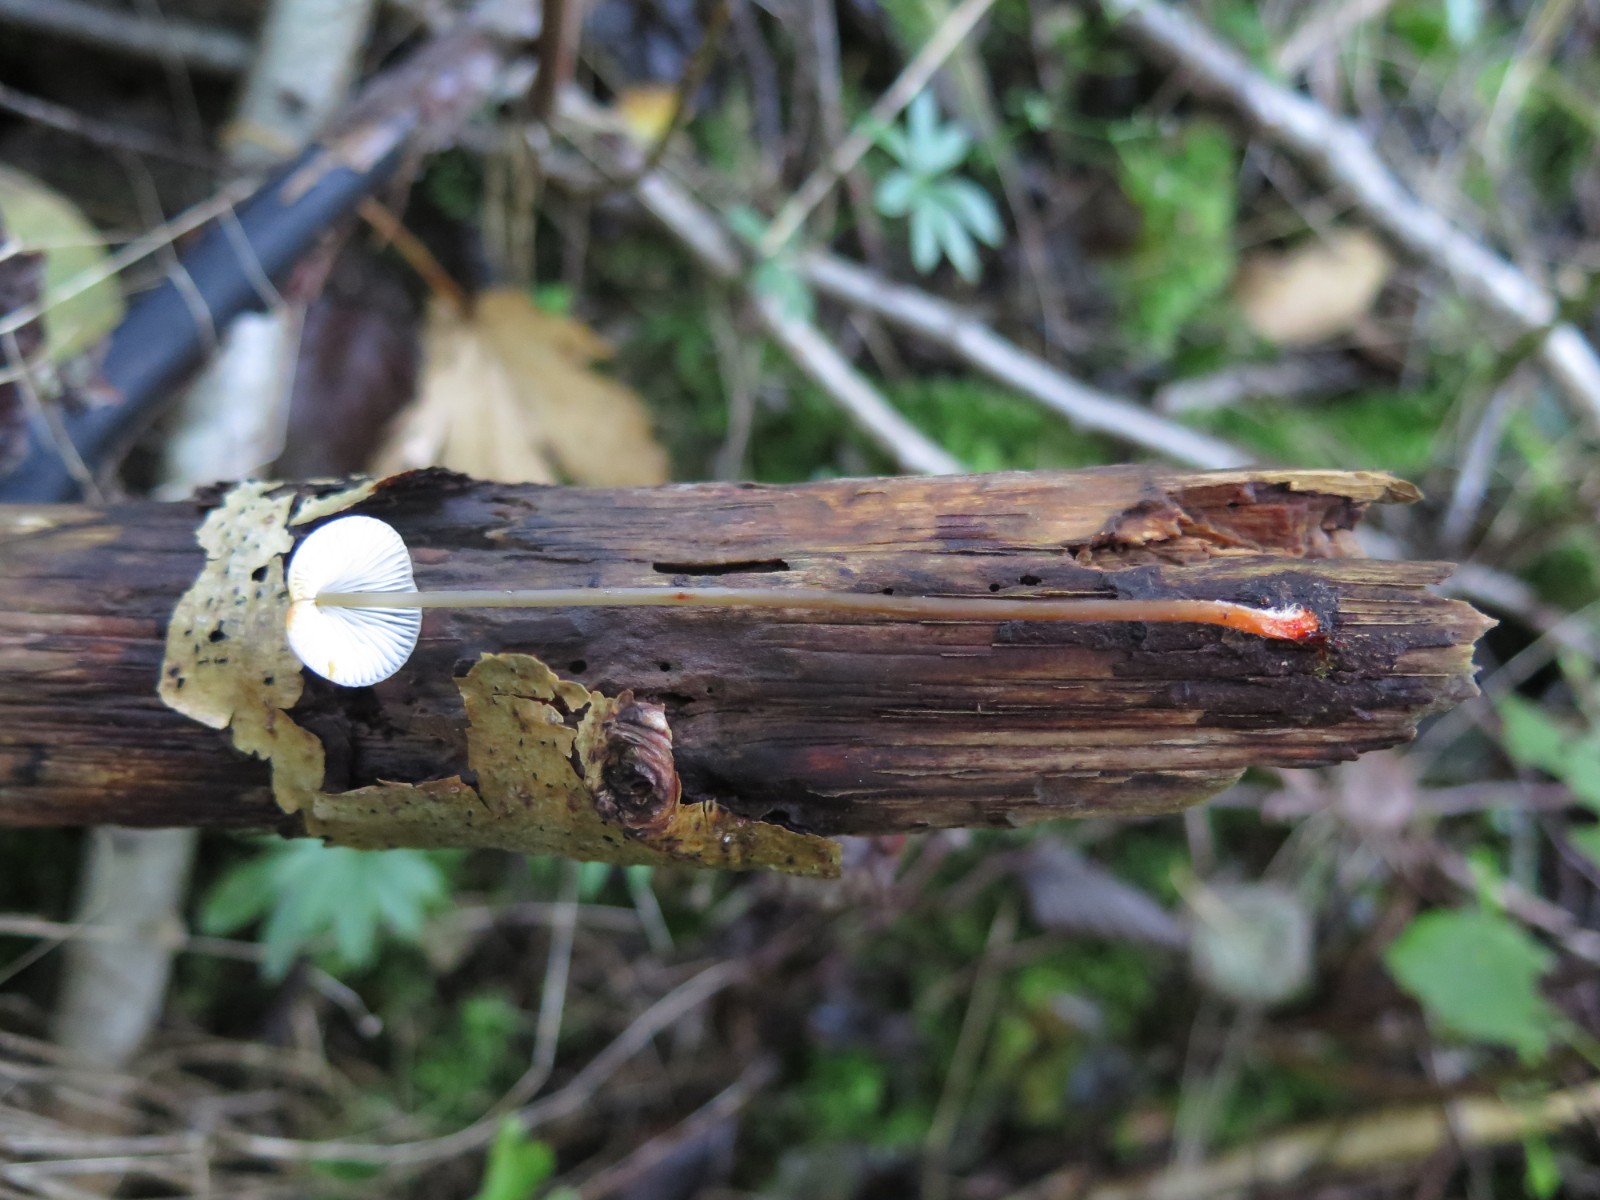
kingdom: Fungi
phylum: Basidiomycota
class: Agaricomycetes
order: Agaricales
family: Mycenaceae
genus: Mycena
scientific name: Mycena crocata
